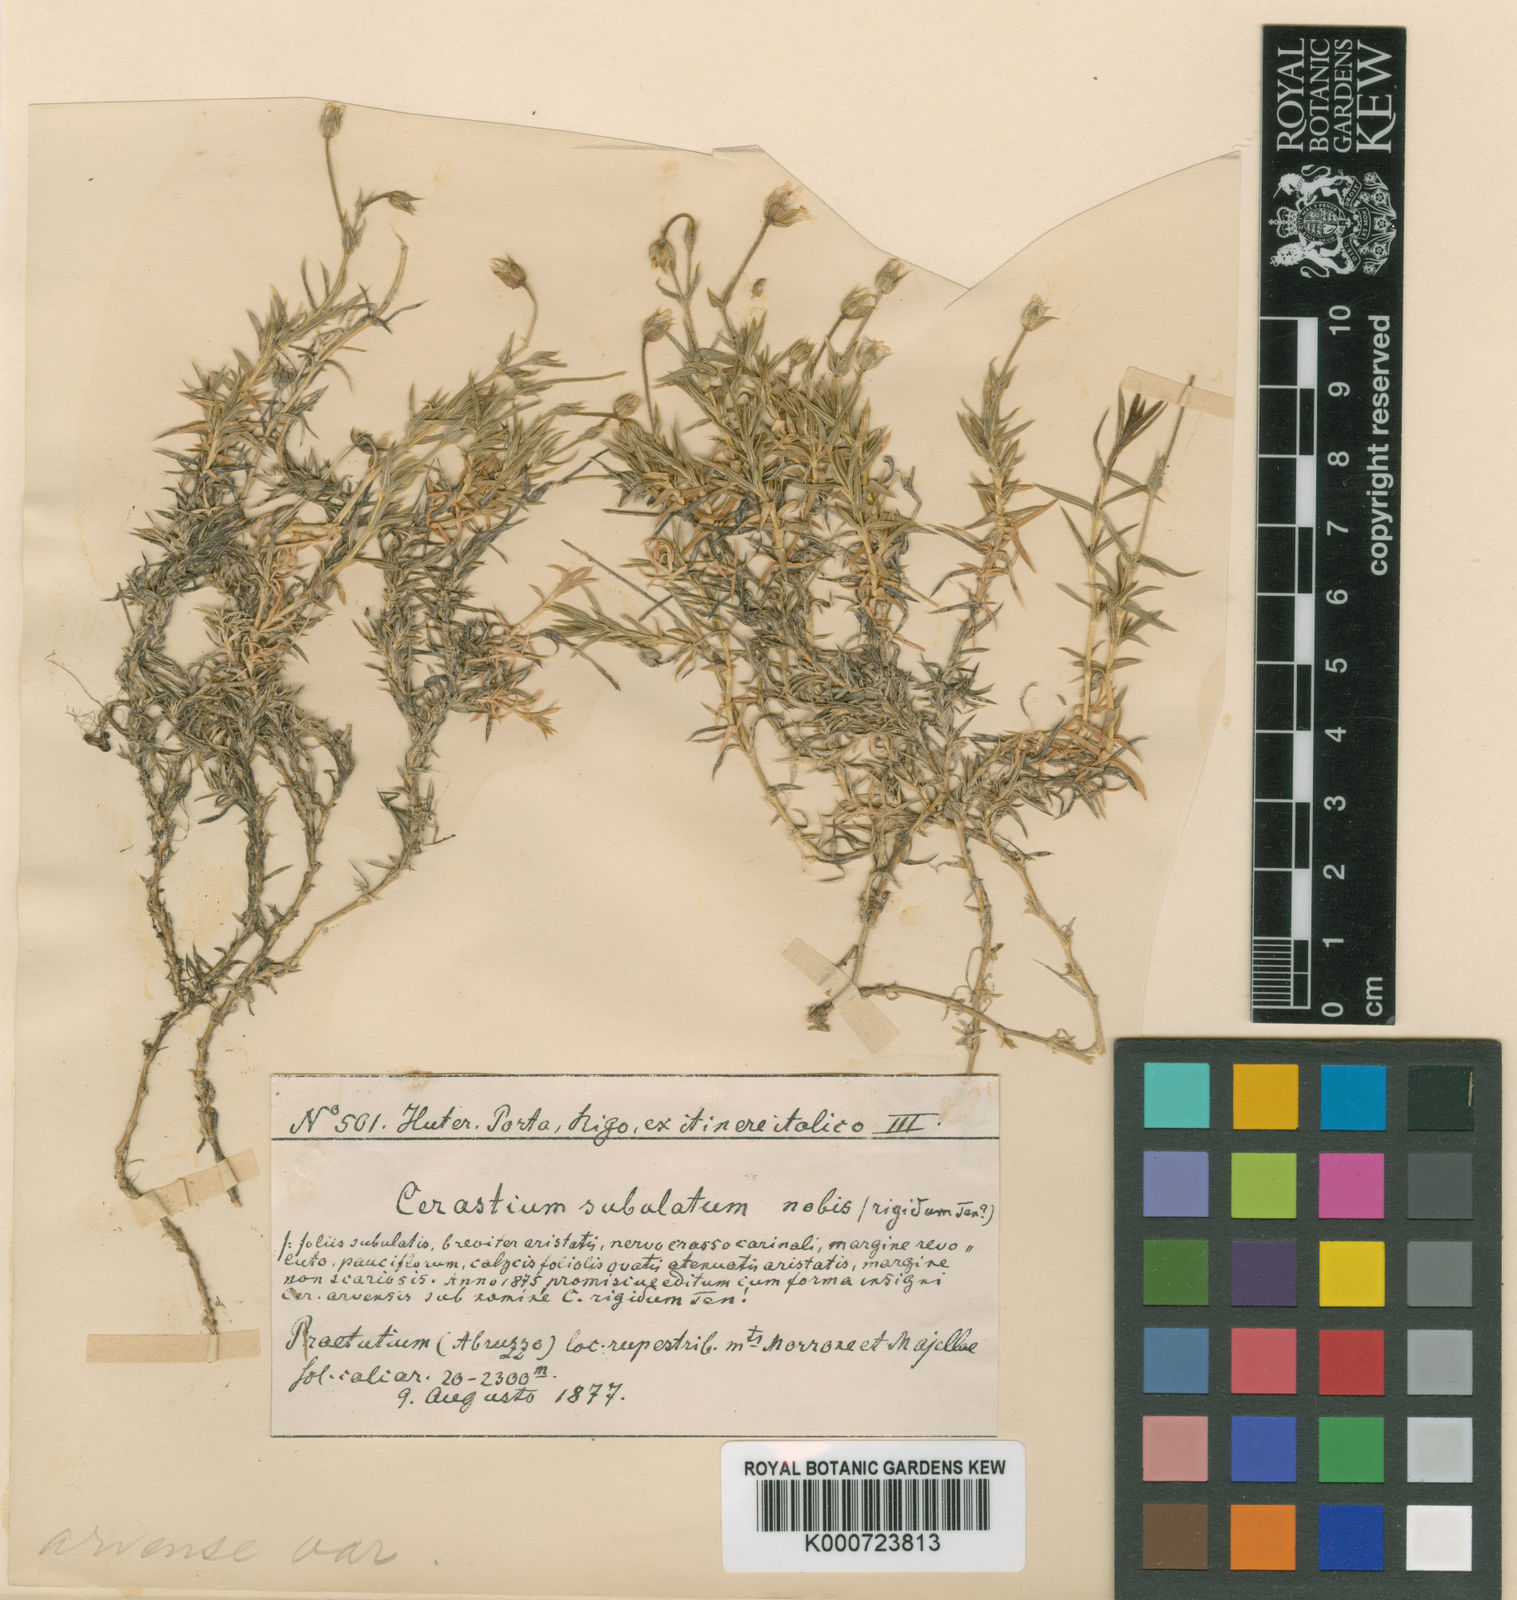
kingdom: Plantae
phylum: Tracheophyta
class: Magnoliopsida
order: Caryophyllales
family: Caryophyllaceae
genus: Cherleria
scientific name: Cherleria arctica
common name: Arctic sandwort
